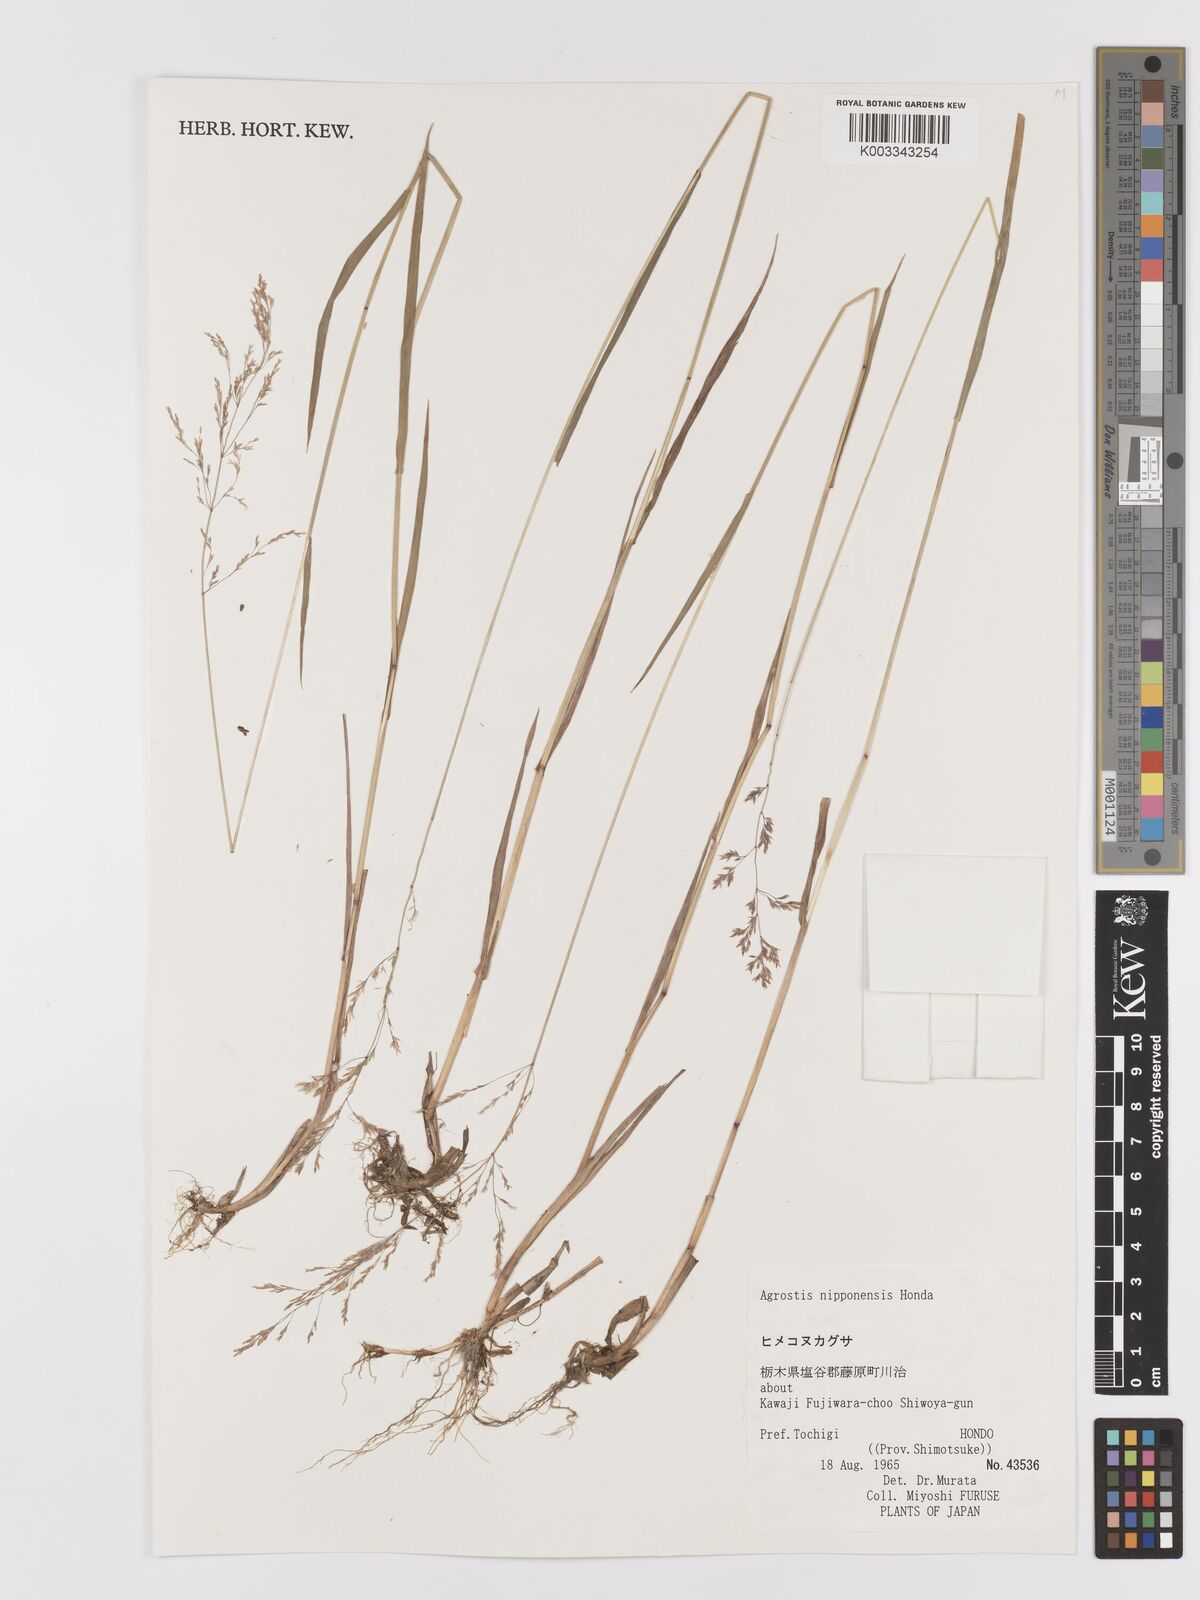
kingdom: Plantae
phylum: Tracheophyta
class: Liliopsida
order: Poales
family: Poaceae
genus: Agrostis
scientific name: Agrostis valvata
